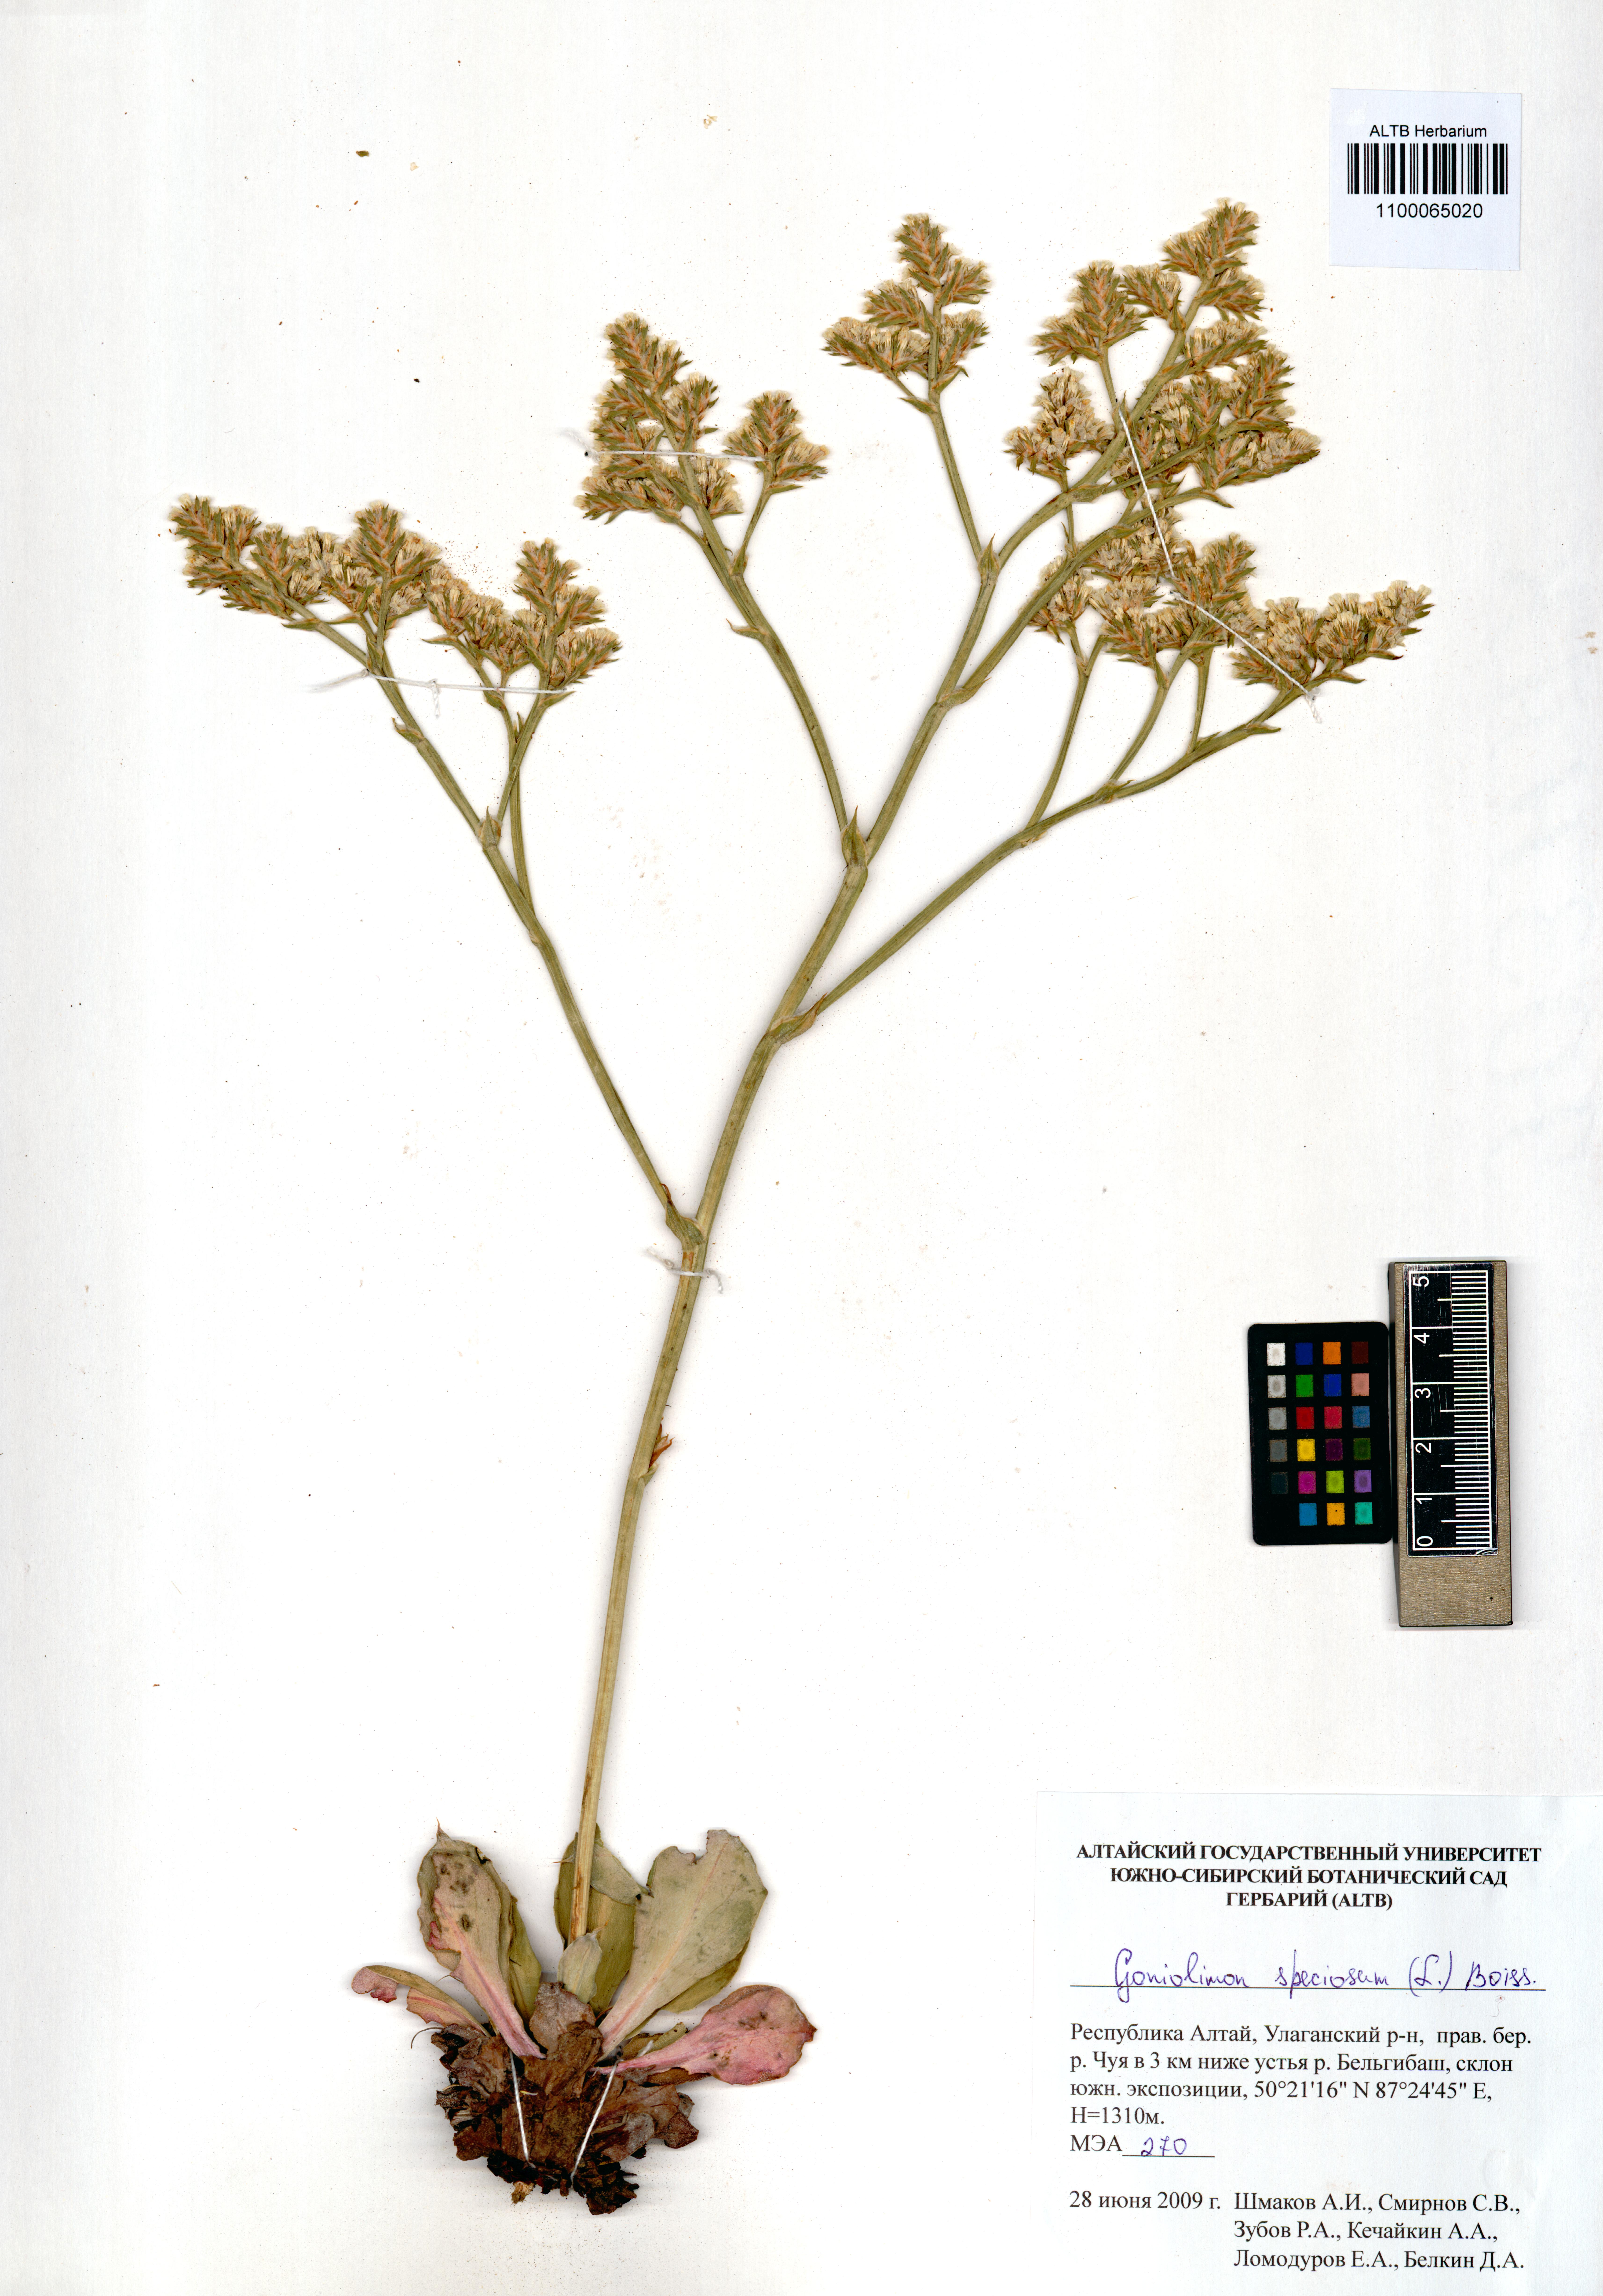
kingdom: Plantae
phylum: Tracheophyta
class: Magnoliopsida
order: Caryophyllales
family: Plumbaginaceae
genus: Goniolimon
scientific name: Goniolimon speciosum
